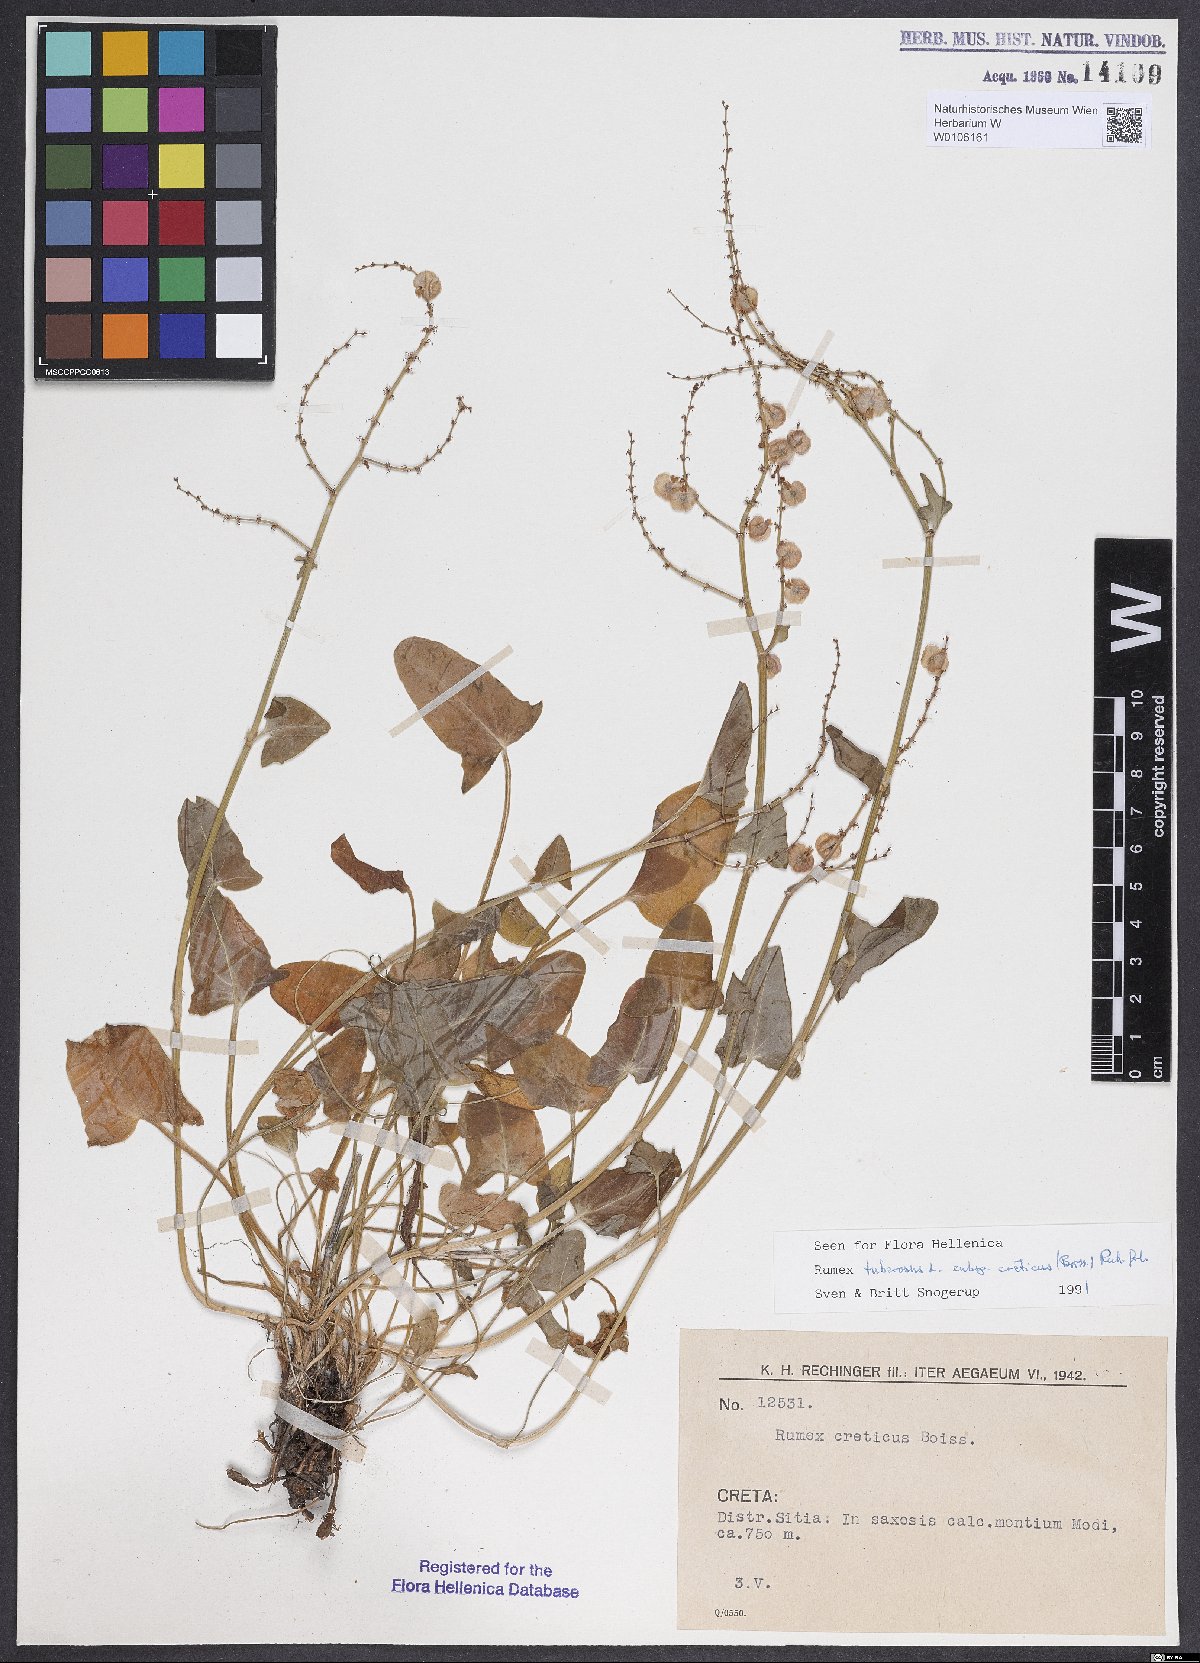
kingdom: Plantae
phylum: Tracheophyta
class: Magnoliopsida
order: Caryophyllales
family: Polygonaceae
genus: Rumex
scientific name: Rumex tuberosus
